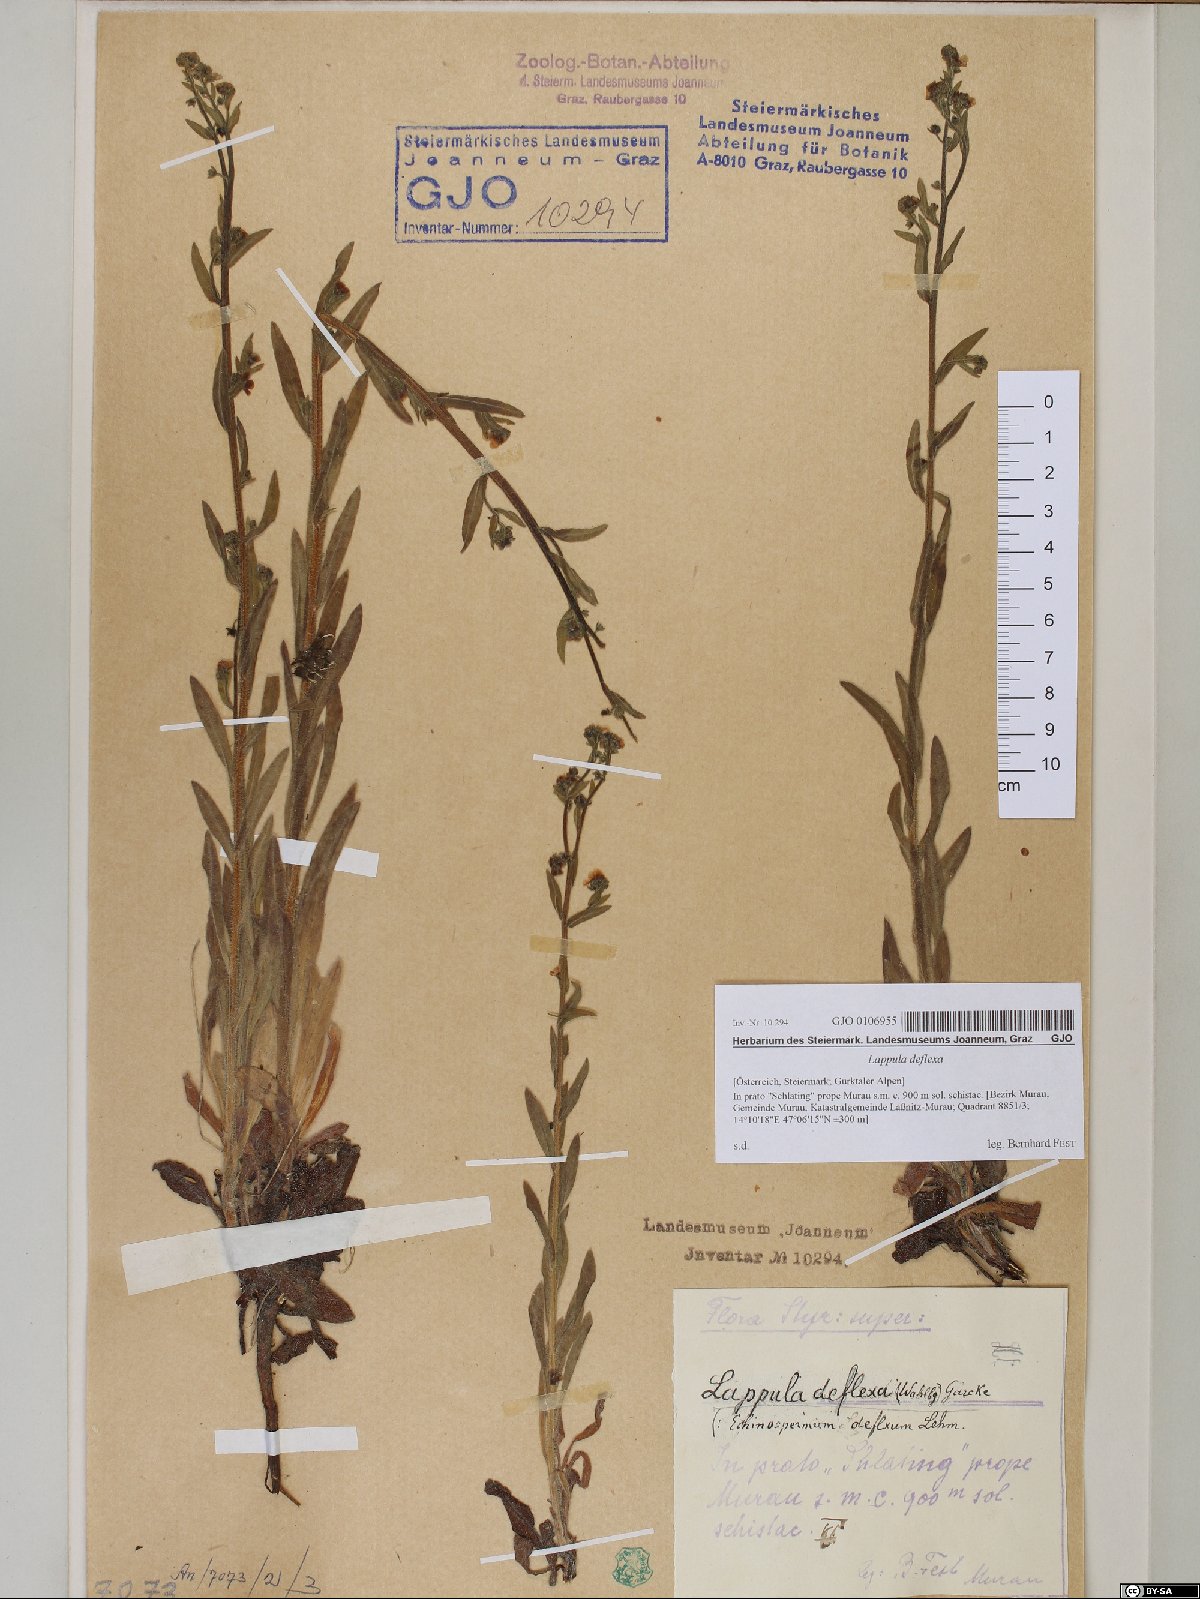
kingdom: Plantae
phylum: Tracheophyta
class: Magnoliopsida
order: Boraginales
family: Boraginaceae
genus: Hackelia
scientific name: Hackelia deflexa
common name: Nodding stickseed
